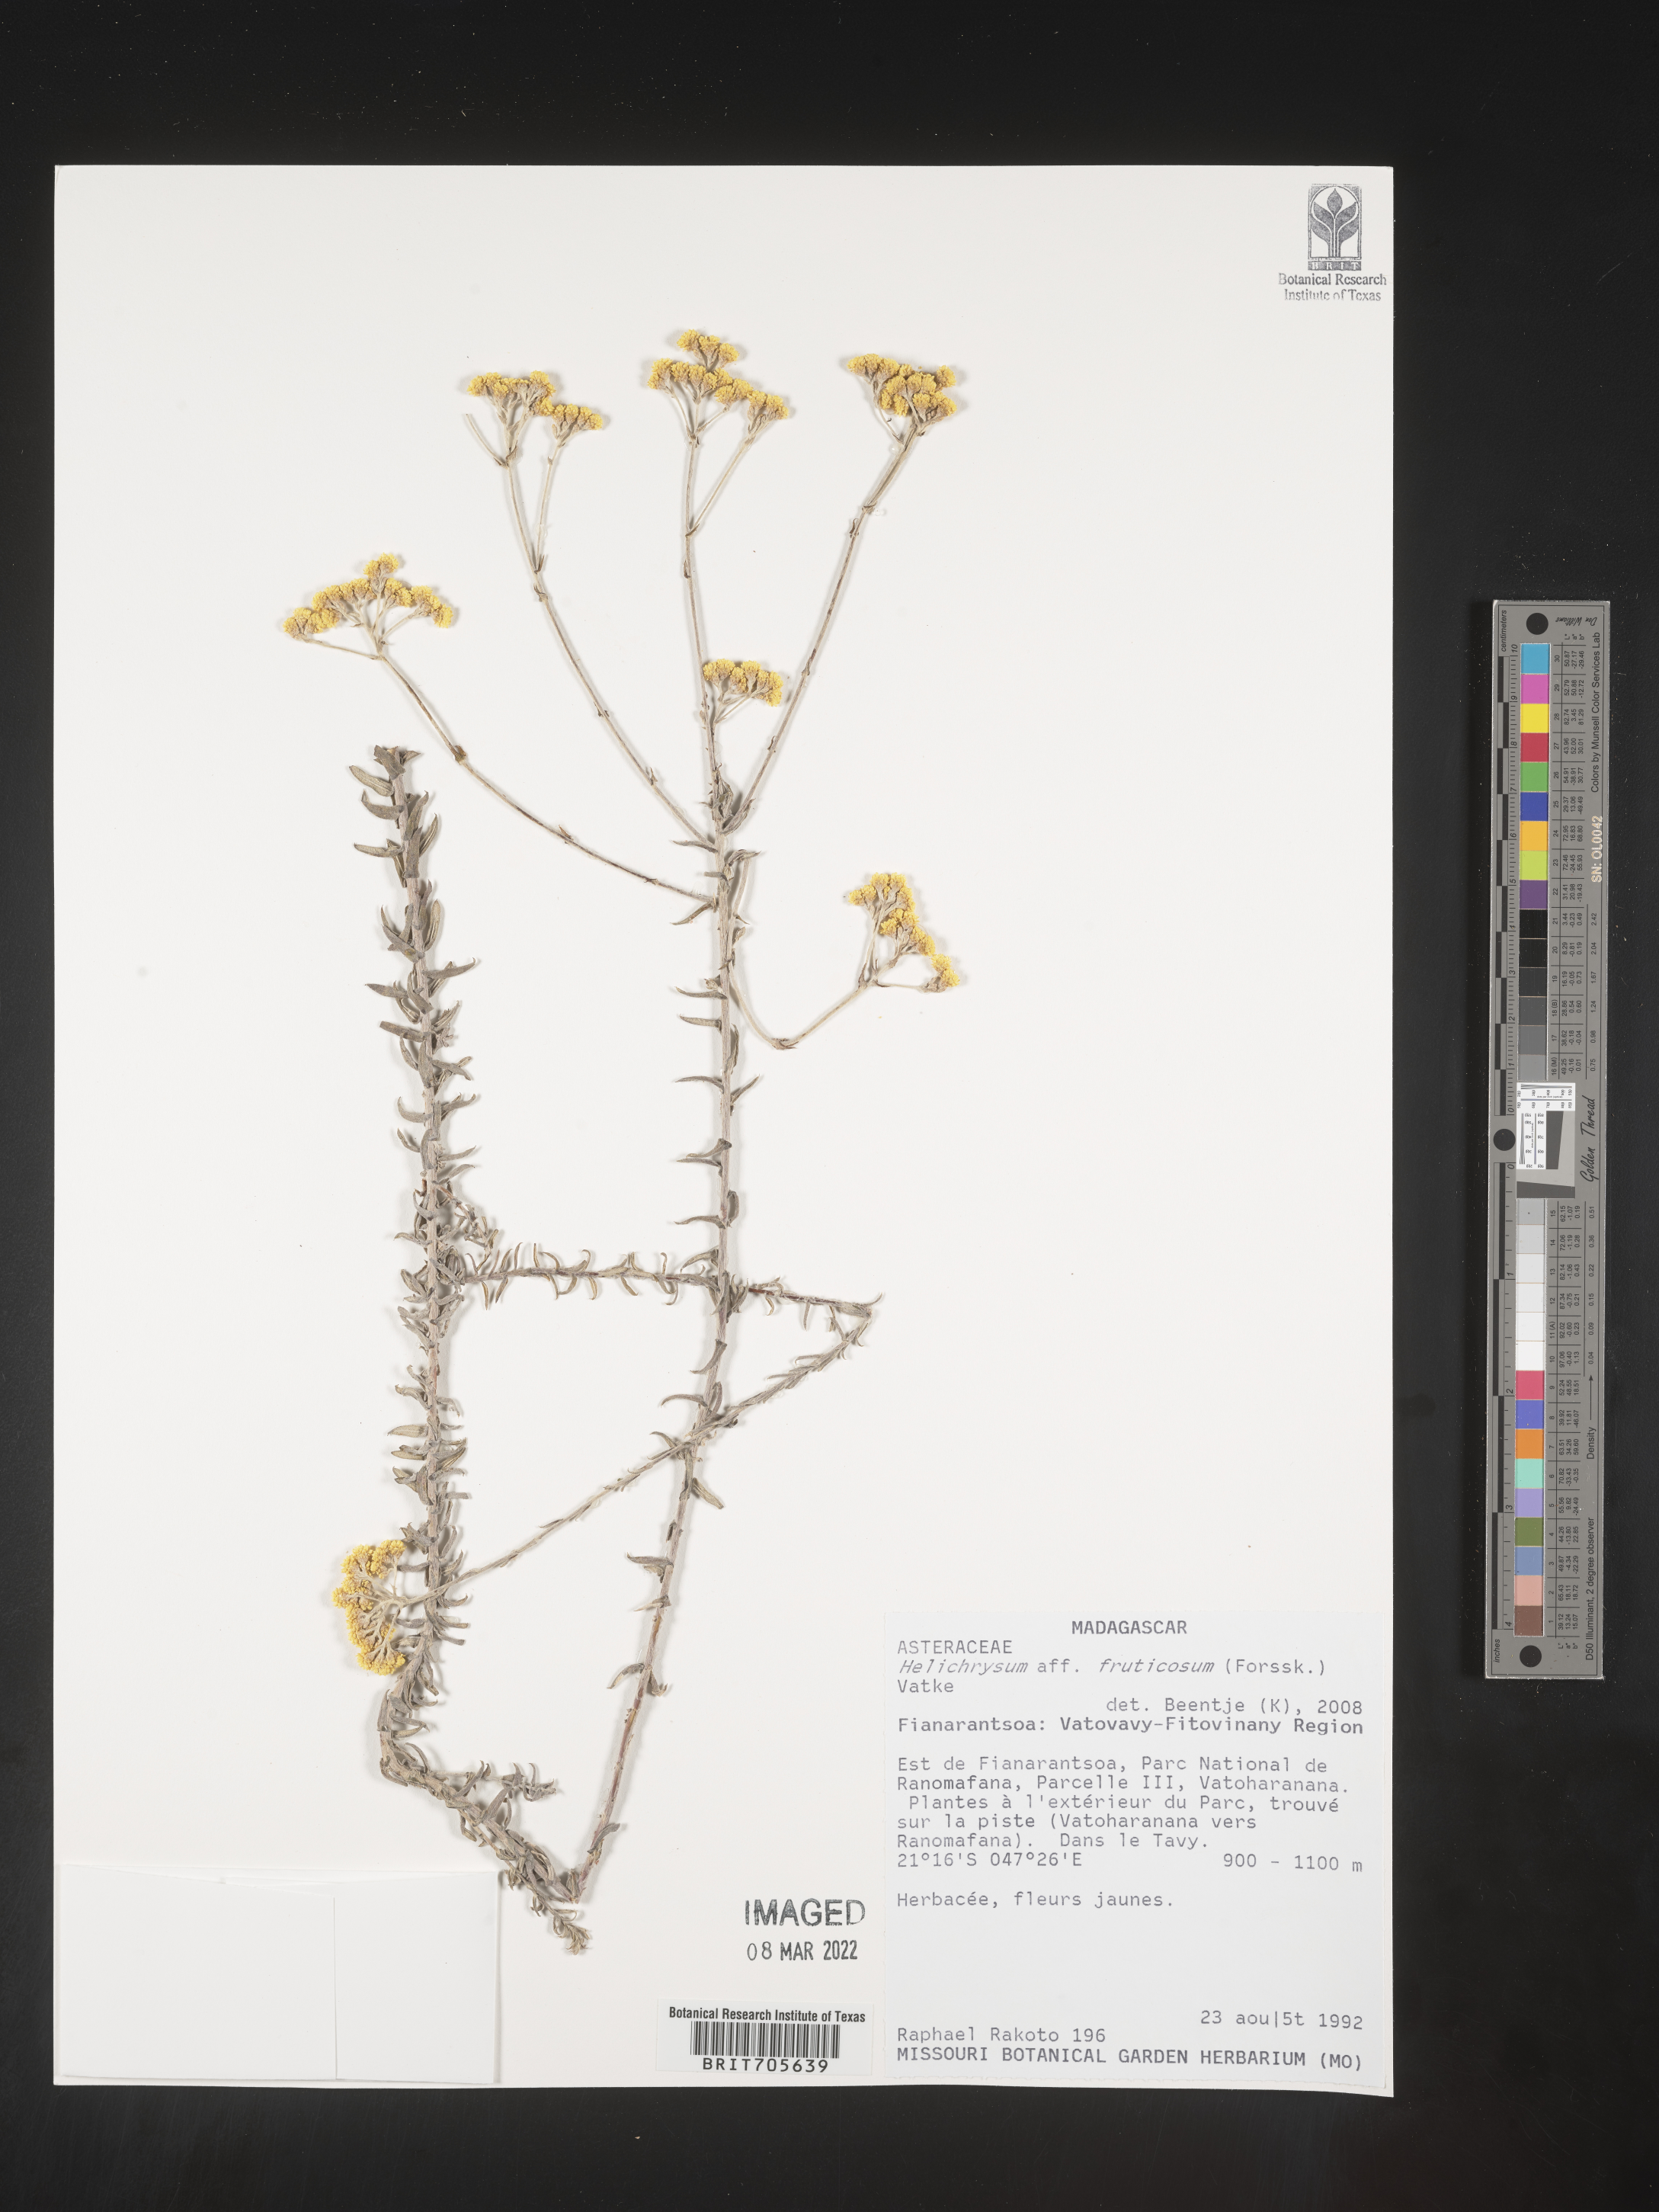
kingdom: Plantae
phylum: Tracheophyta
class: Magnoliopsida
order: Asterales
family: Asteraceae
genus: Helichrysum
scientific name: Helichrysum
